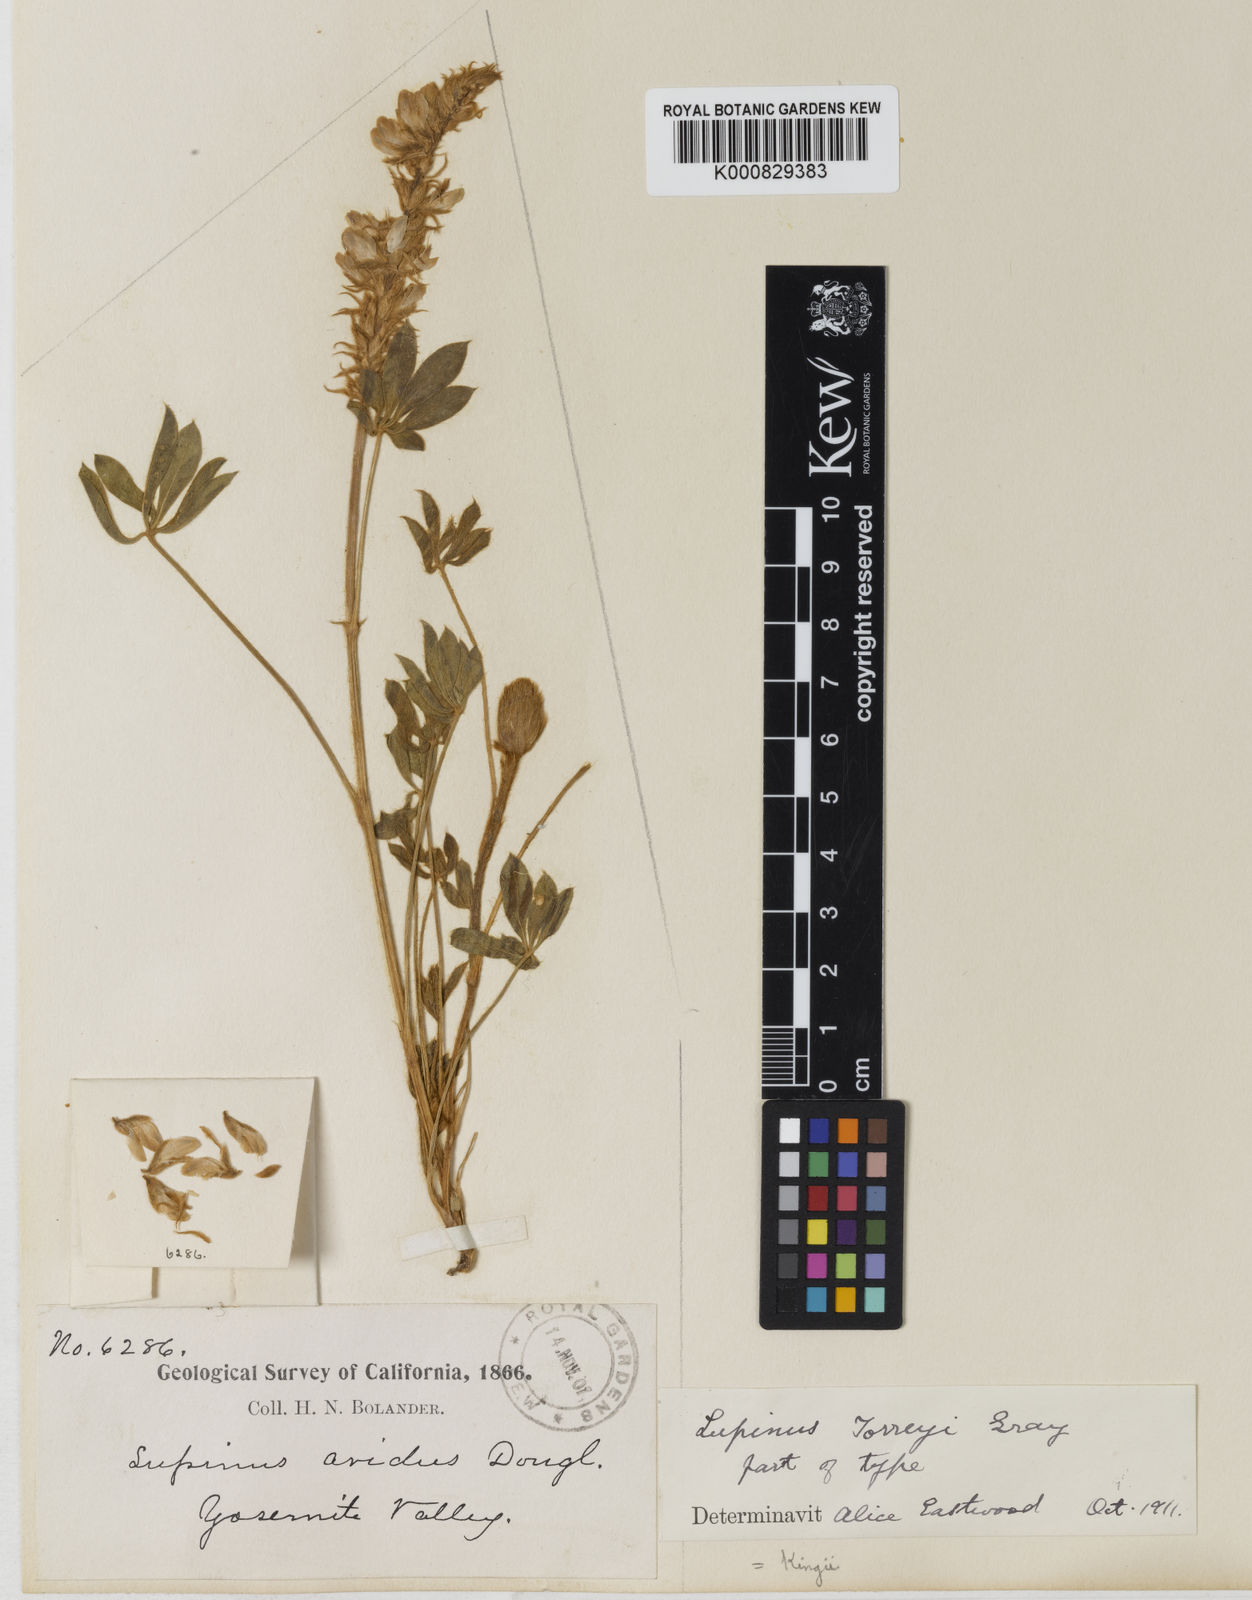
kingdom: Plantae
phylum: Tracheophyta
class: Magnoliopsida
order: Fabales
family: Fabaceae
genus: Lupinus
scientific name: Lupinus
